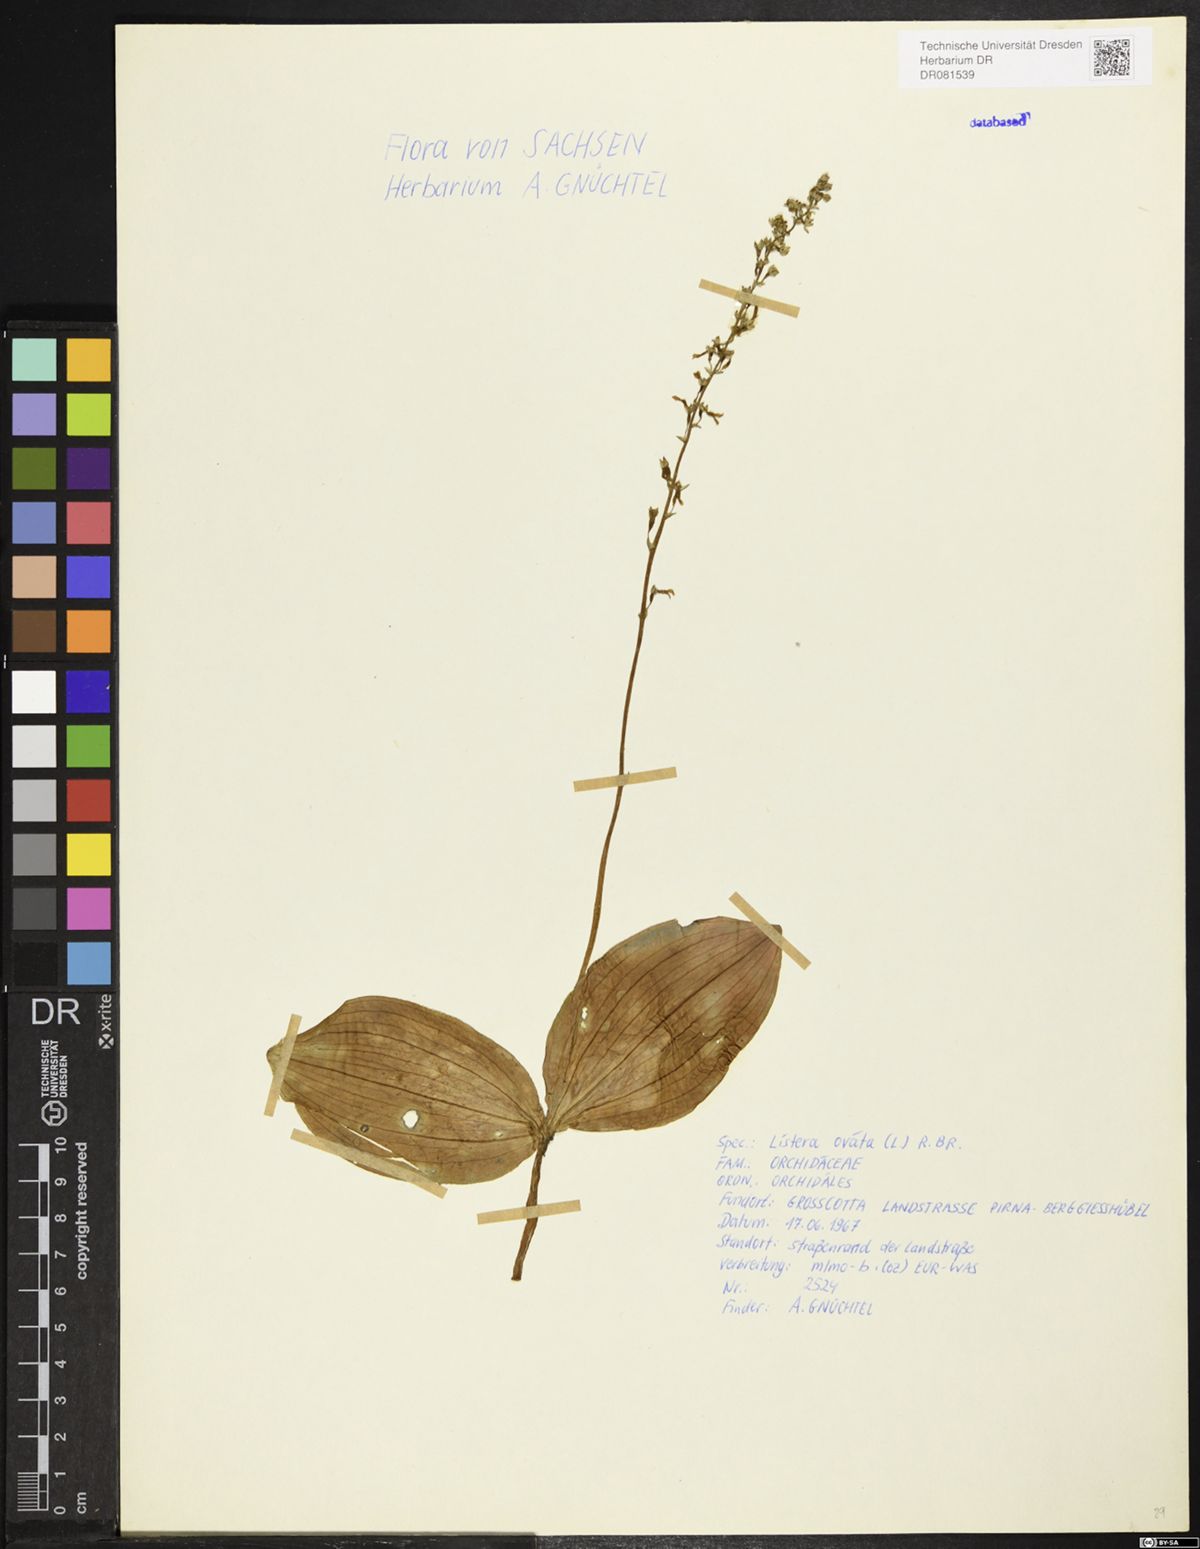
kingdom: Plantae
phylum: Tracheophyta
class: Liliopsida
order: Asparagales
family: Orchidaceae
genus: Neottia
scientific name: Neottia ovata
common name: Common twayblade
